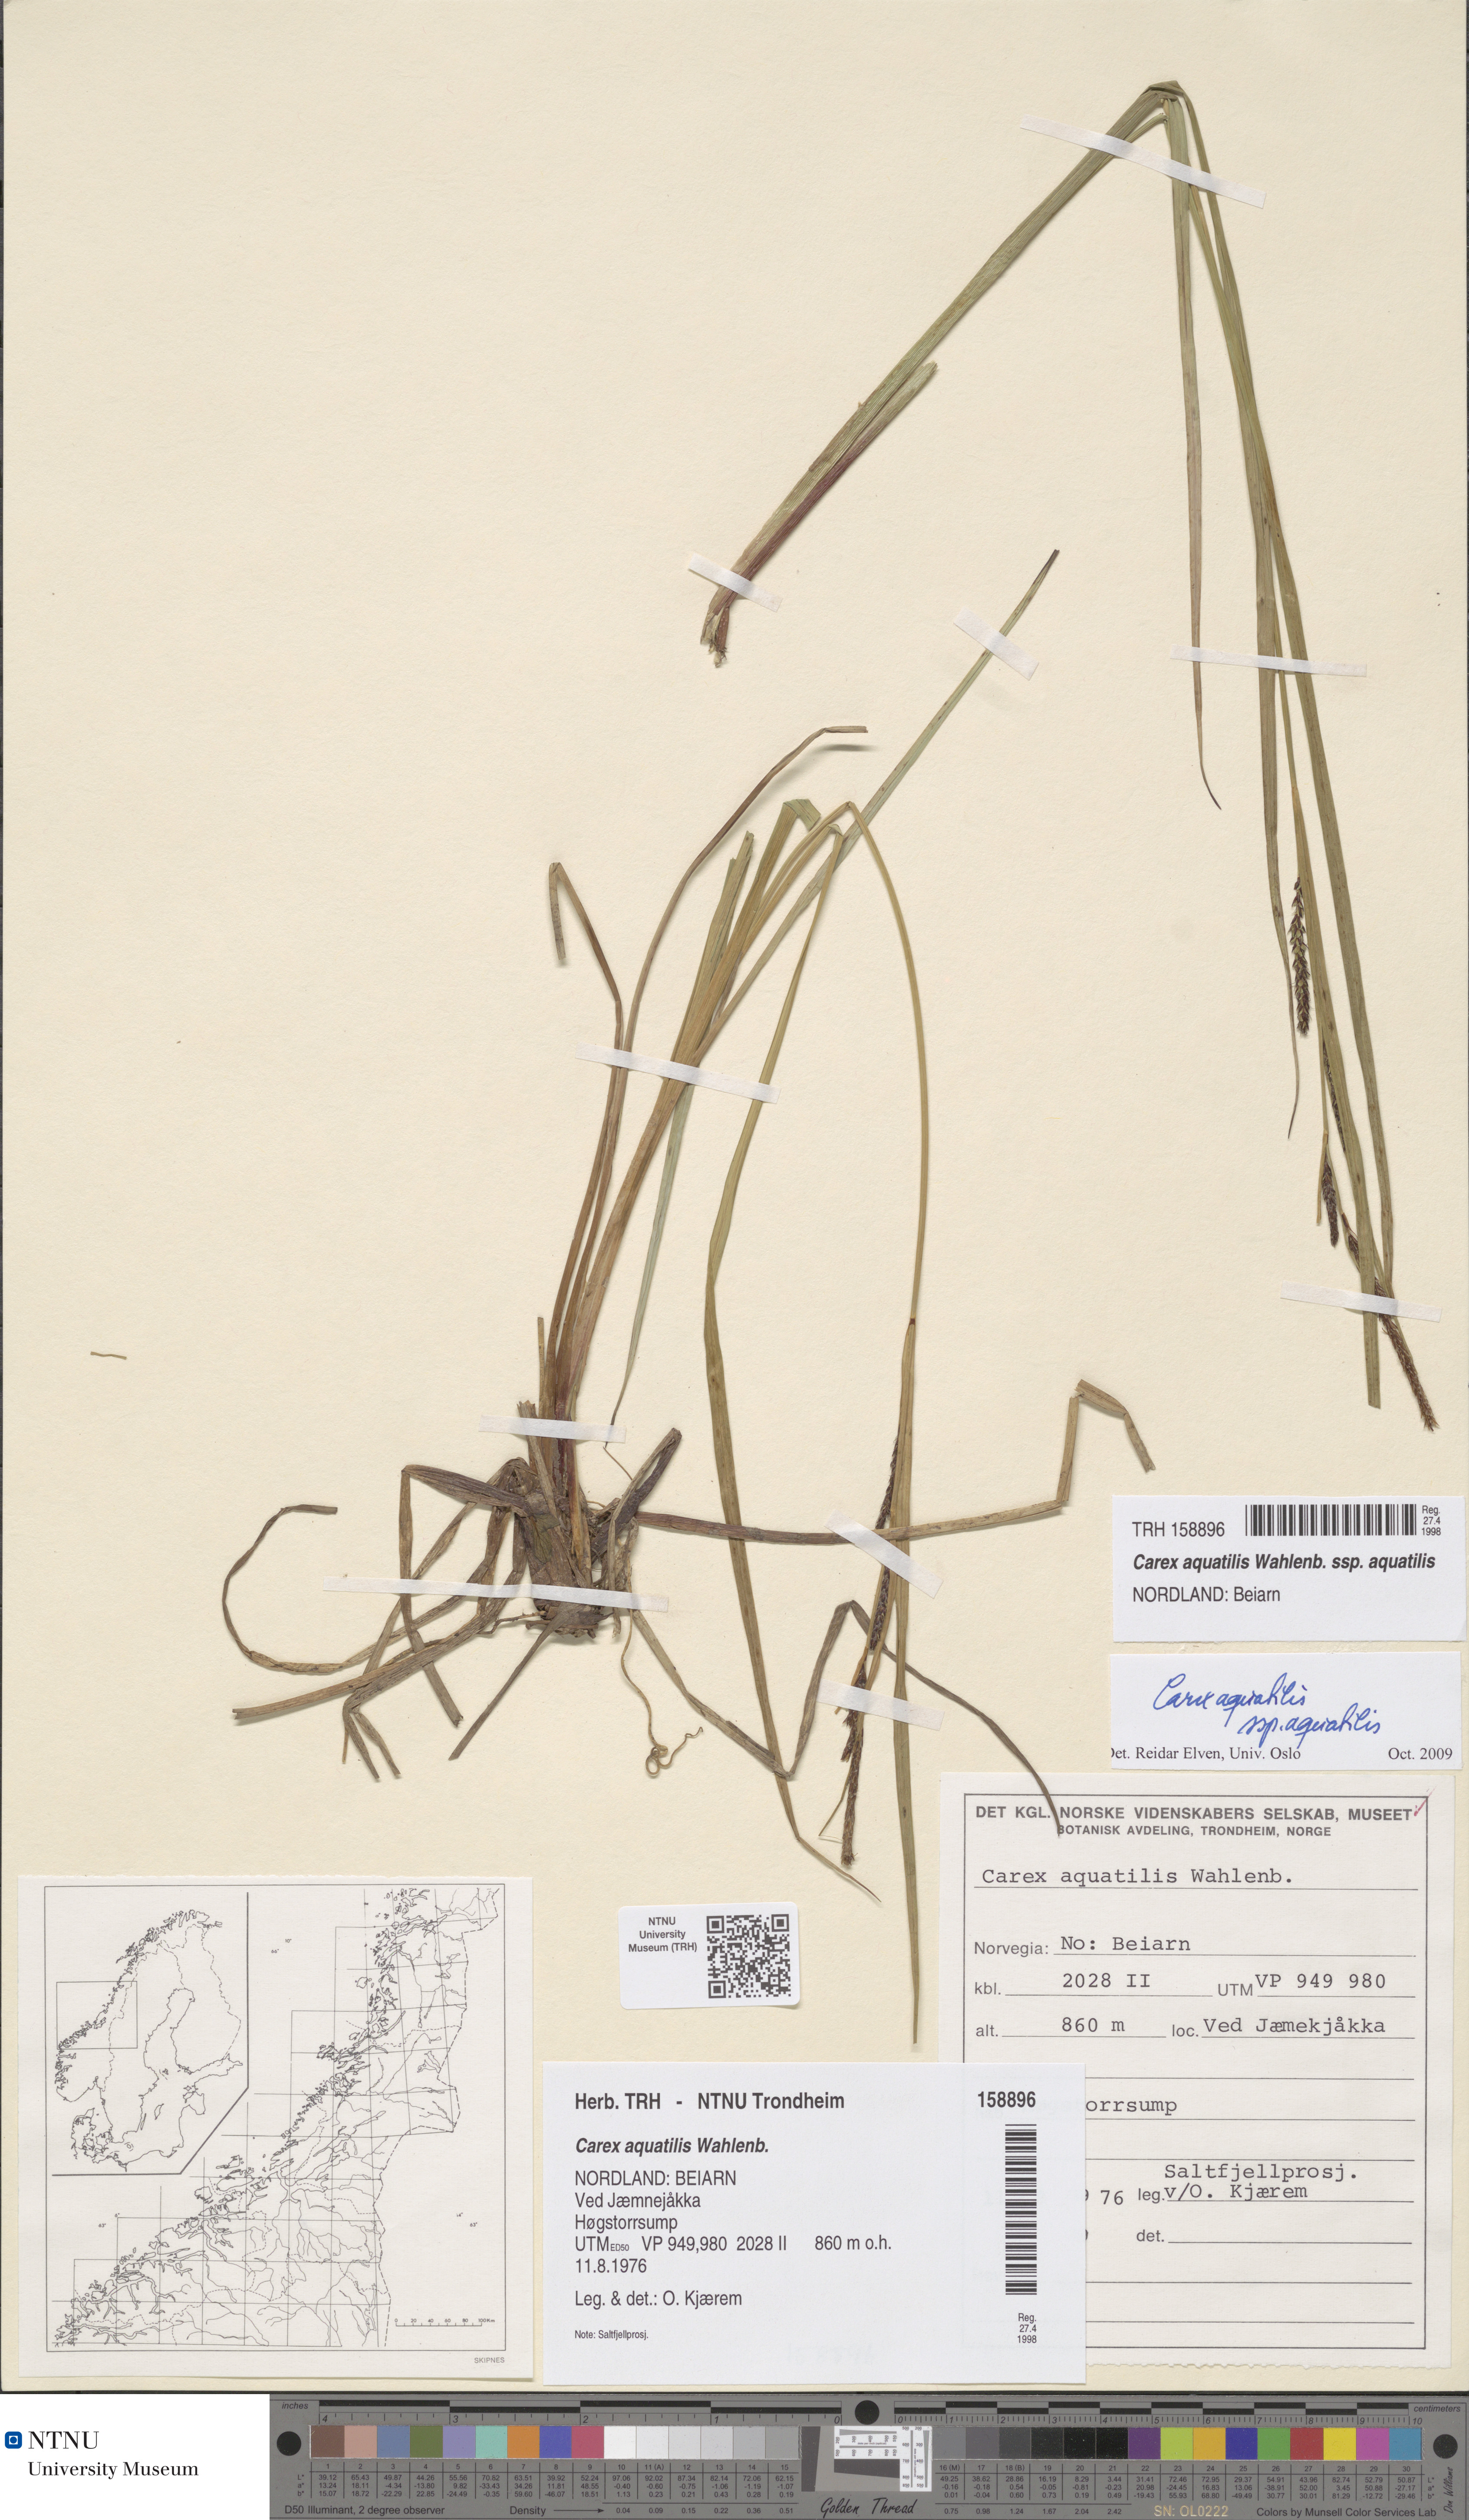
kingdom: Plantae
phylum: Tracheophyta
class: Liliopsida
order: Poales
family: Cyperaceae
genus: Carex
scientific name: Carex aquatilis
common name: Water sedge
